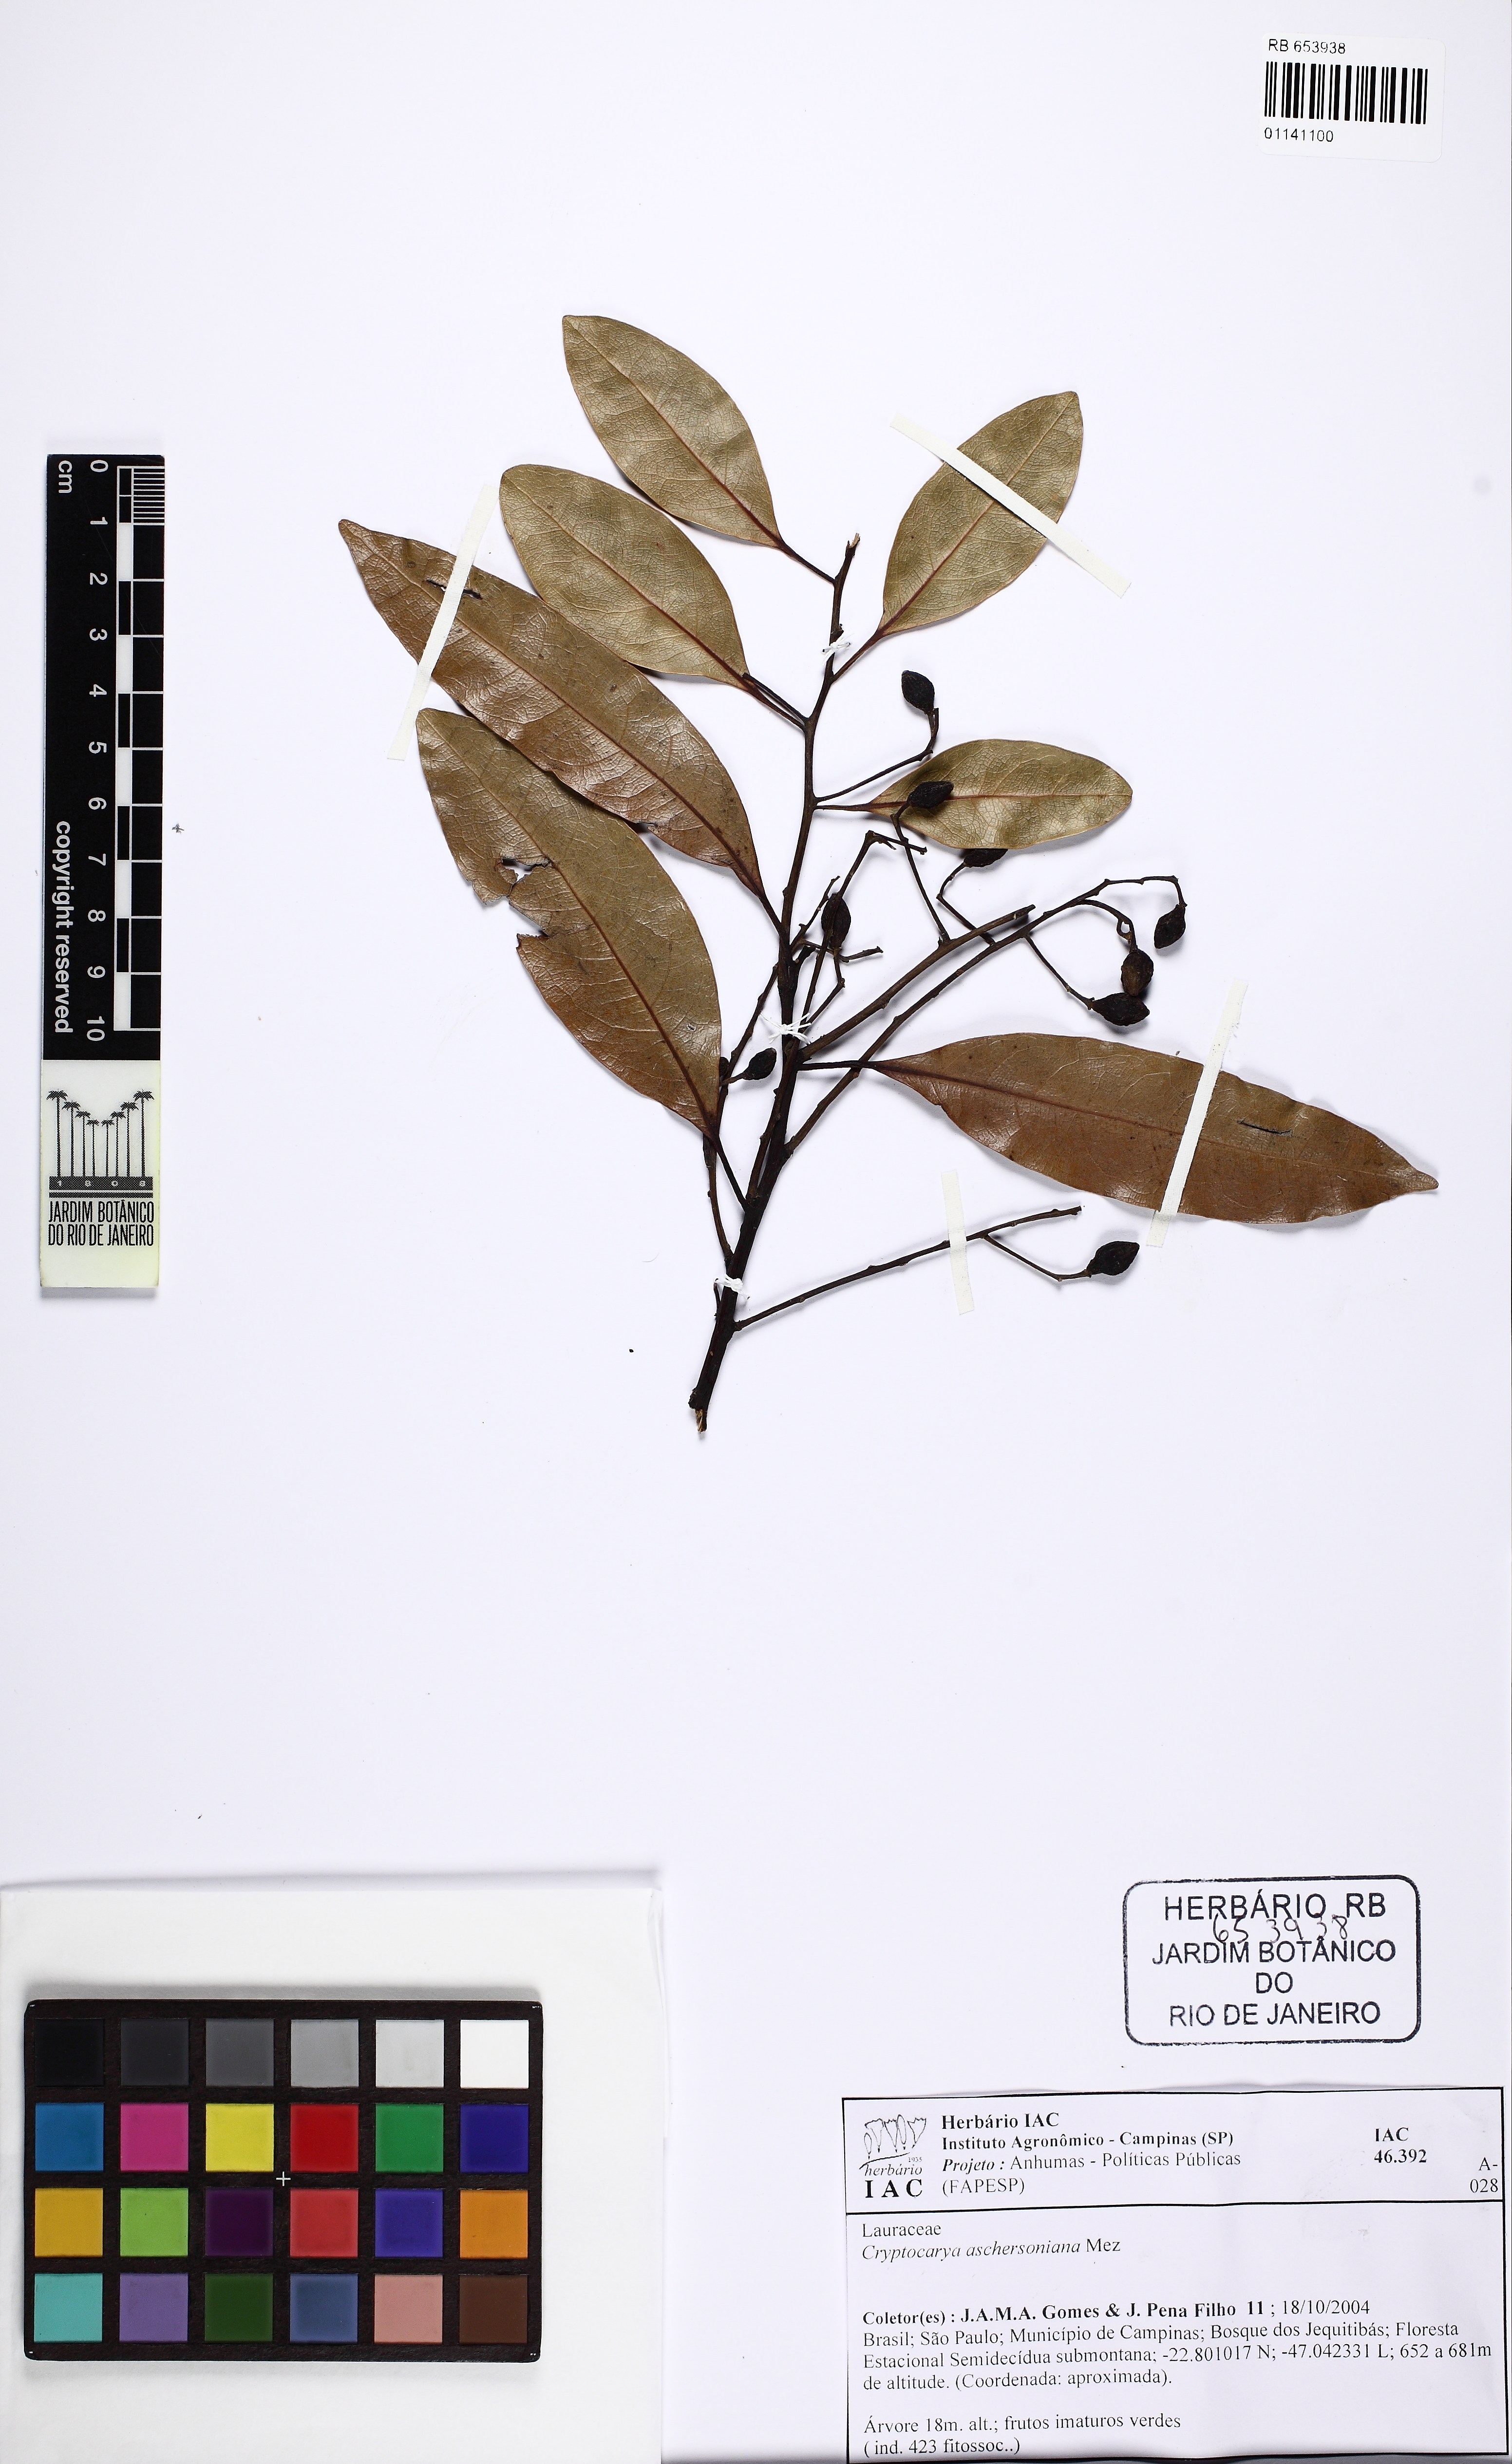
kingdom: Plantae
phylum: Tracheophyta
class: Magnoliopsida
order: Laurales
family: Lauraceae
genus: Cryptocarya
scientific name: Cryptocarya aschersoniana
